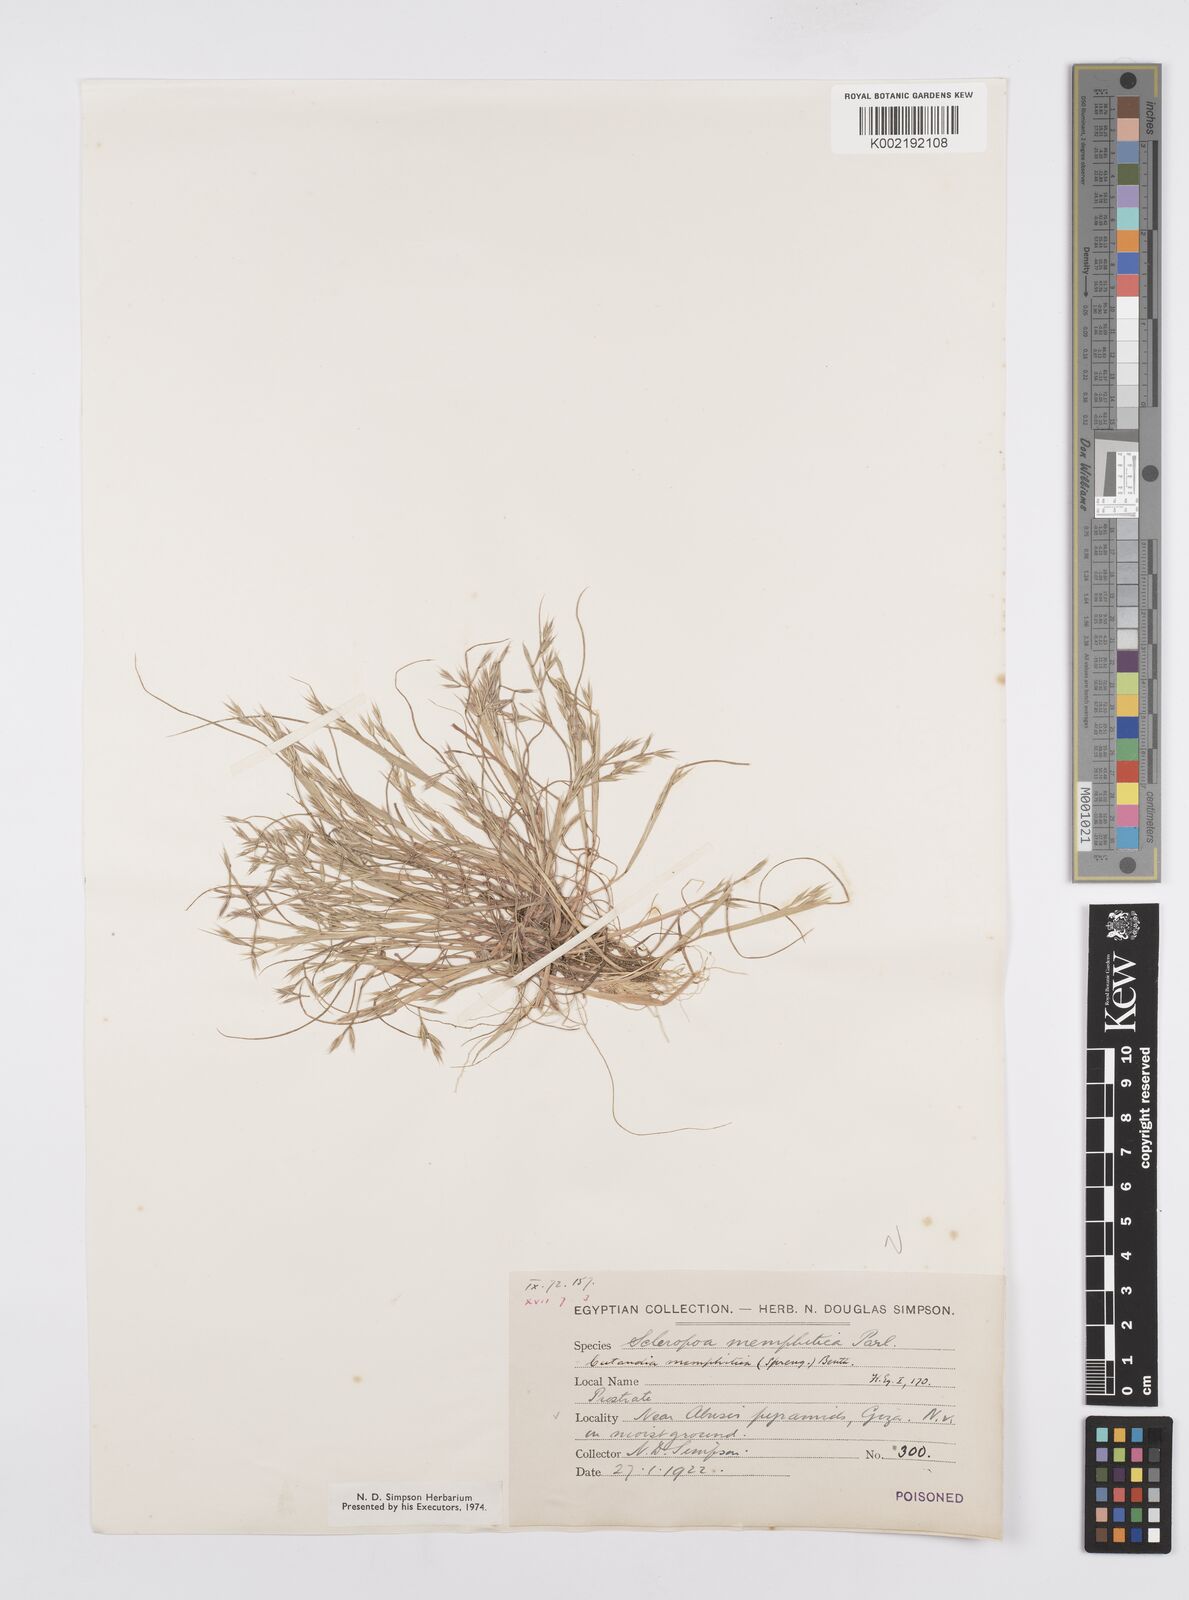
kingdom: Plantae
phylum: Tracheophyta
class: Liliopsida
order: Poales
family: Poaceae
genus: Cutandia
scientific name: Cutandia memphitica
